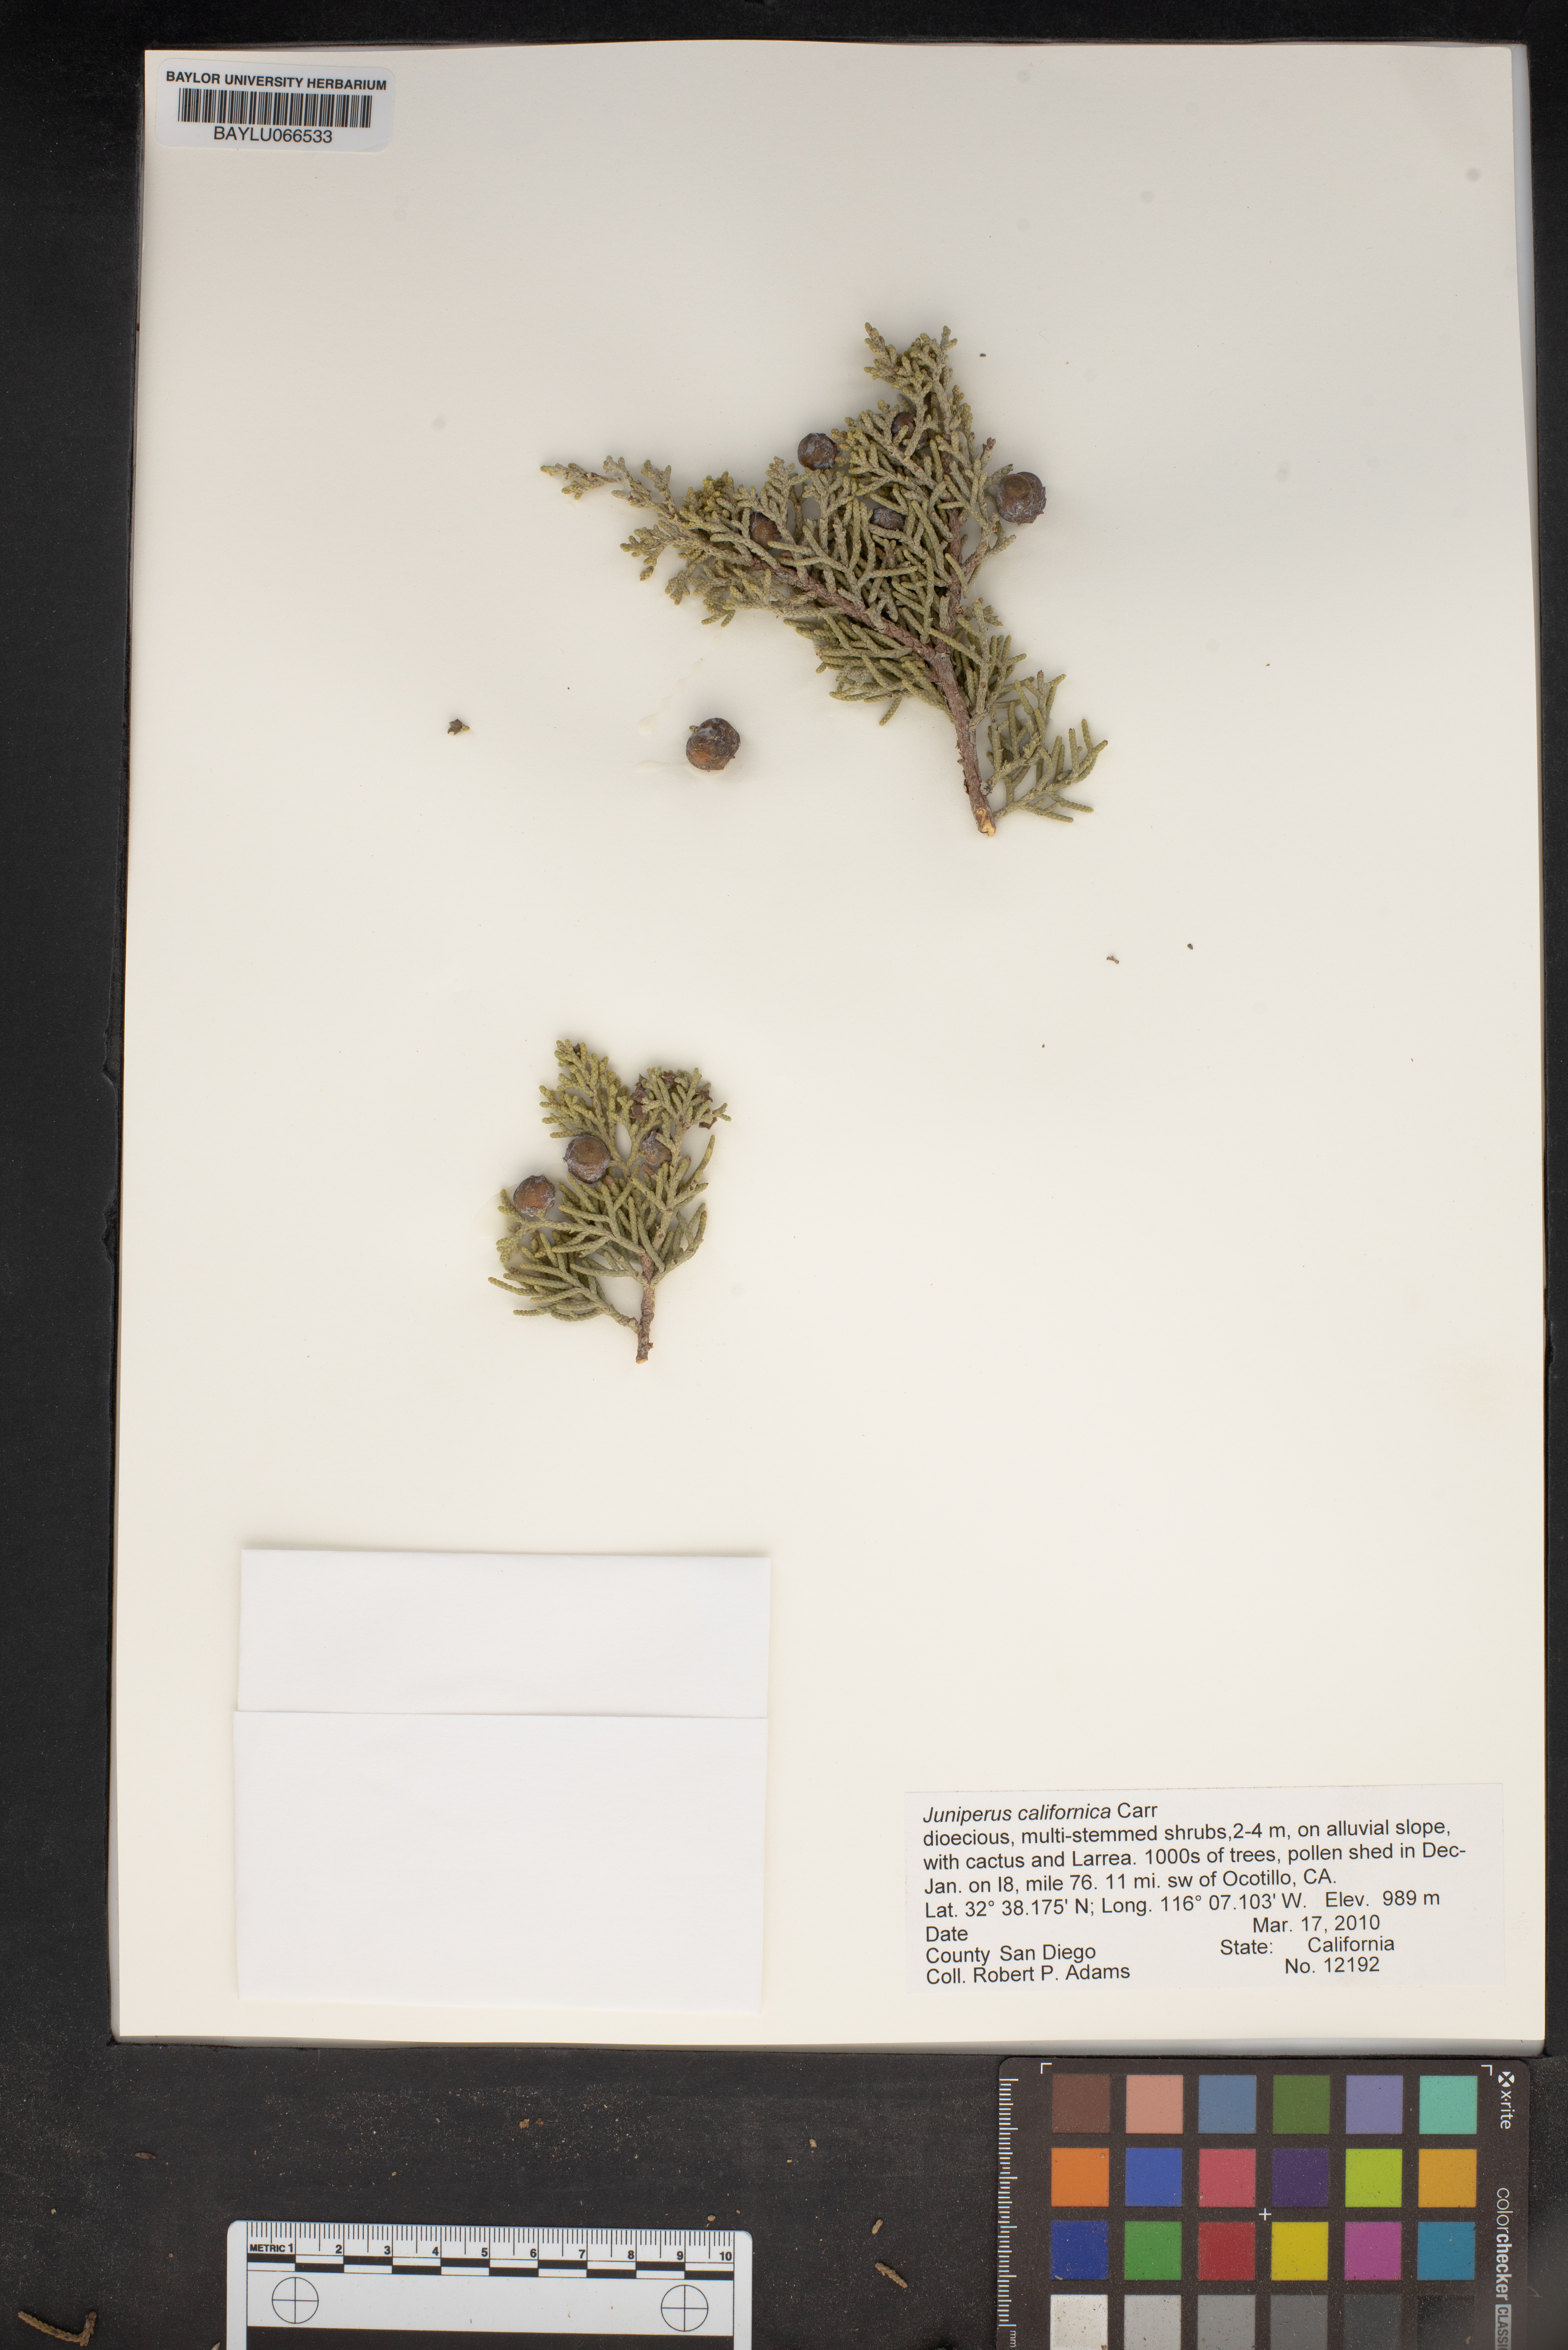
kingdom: Plantae
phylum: Tracheophyta
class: Pinopsida
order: Pinales
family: Cupressaceae
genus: Juniperus
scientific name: Juniperus californica
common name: California juniper
